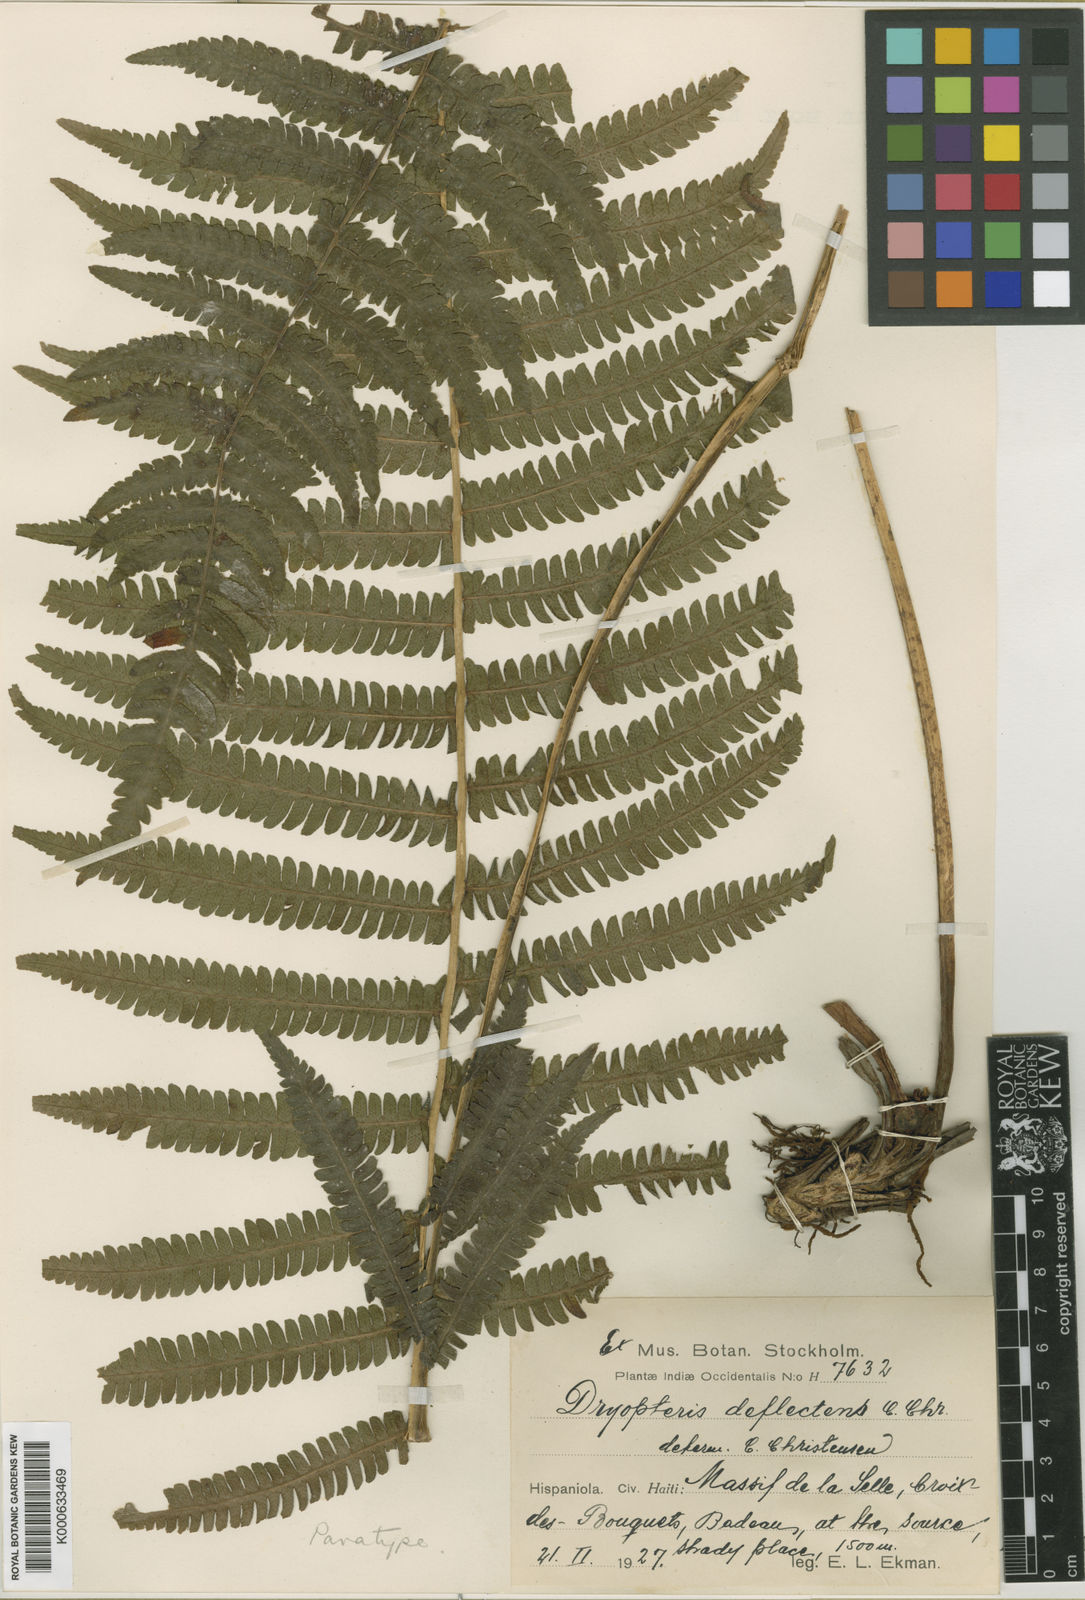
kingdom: Plantae
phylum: Tracheophyta
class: Polypodiopsida
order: Polypodiales
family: Thelypteridaceae
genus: Amauropelta
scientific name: Amauropelta deflectens
